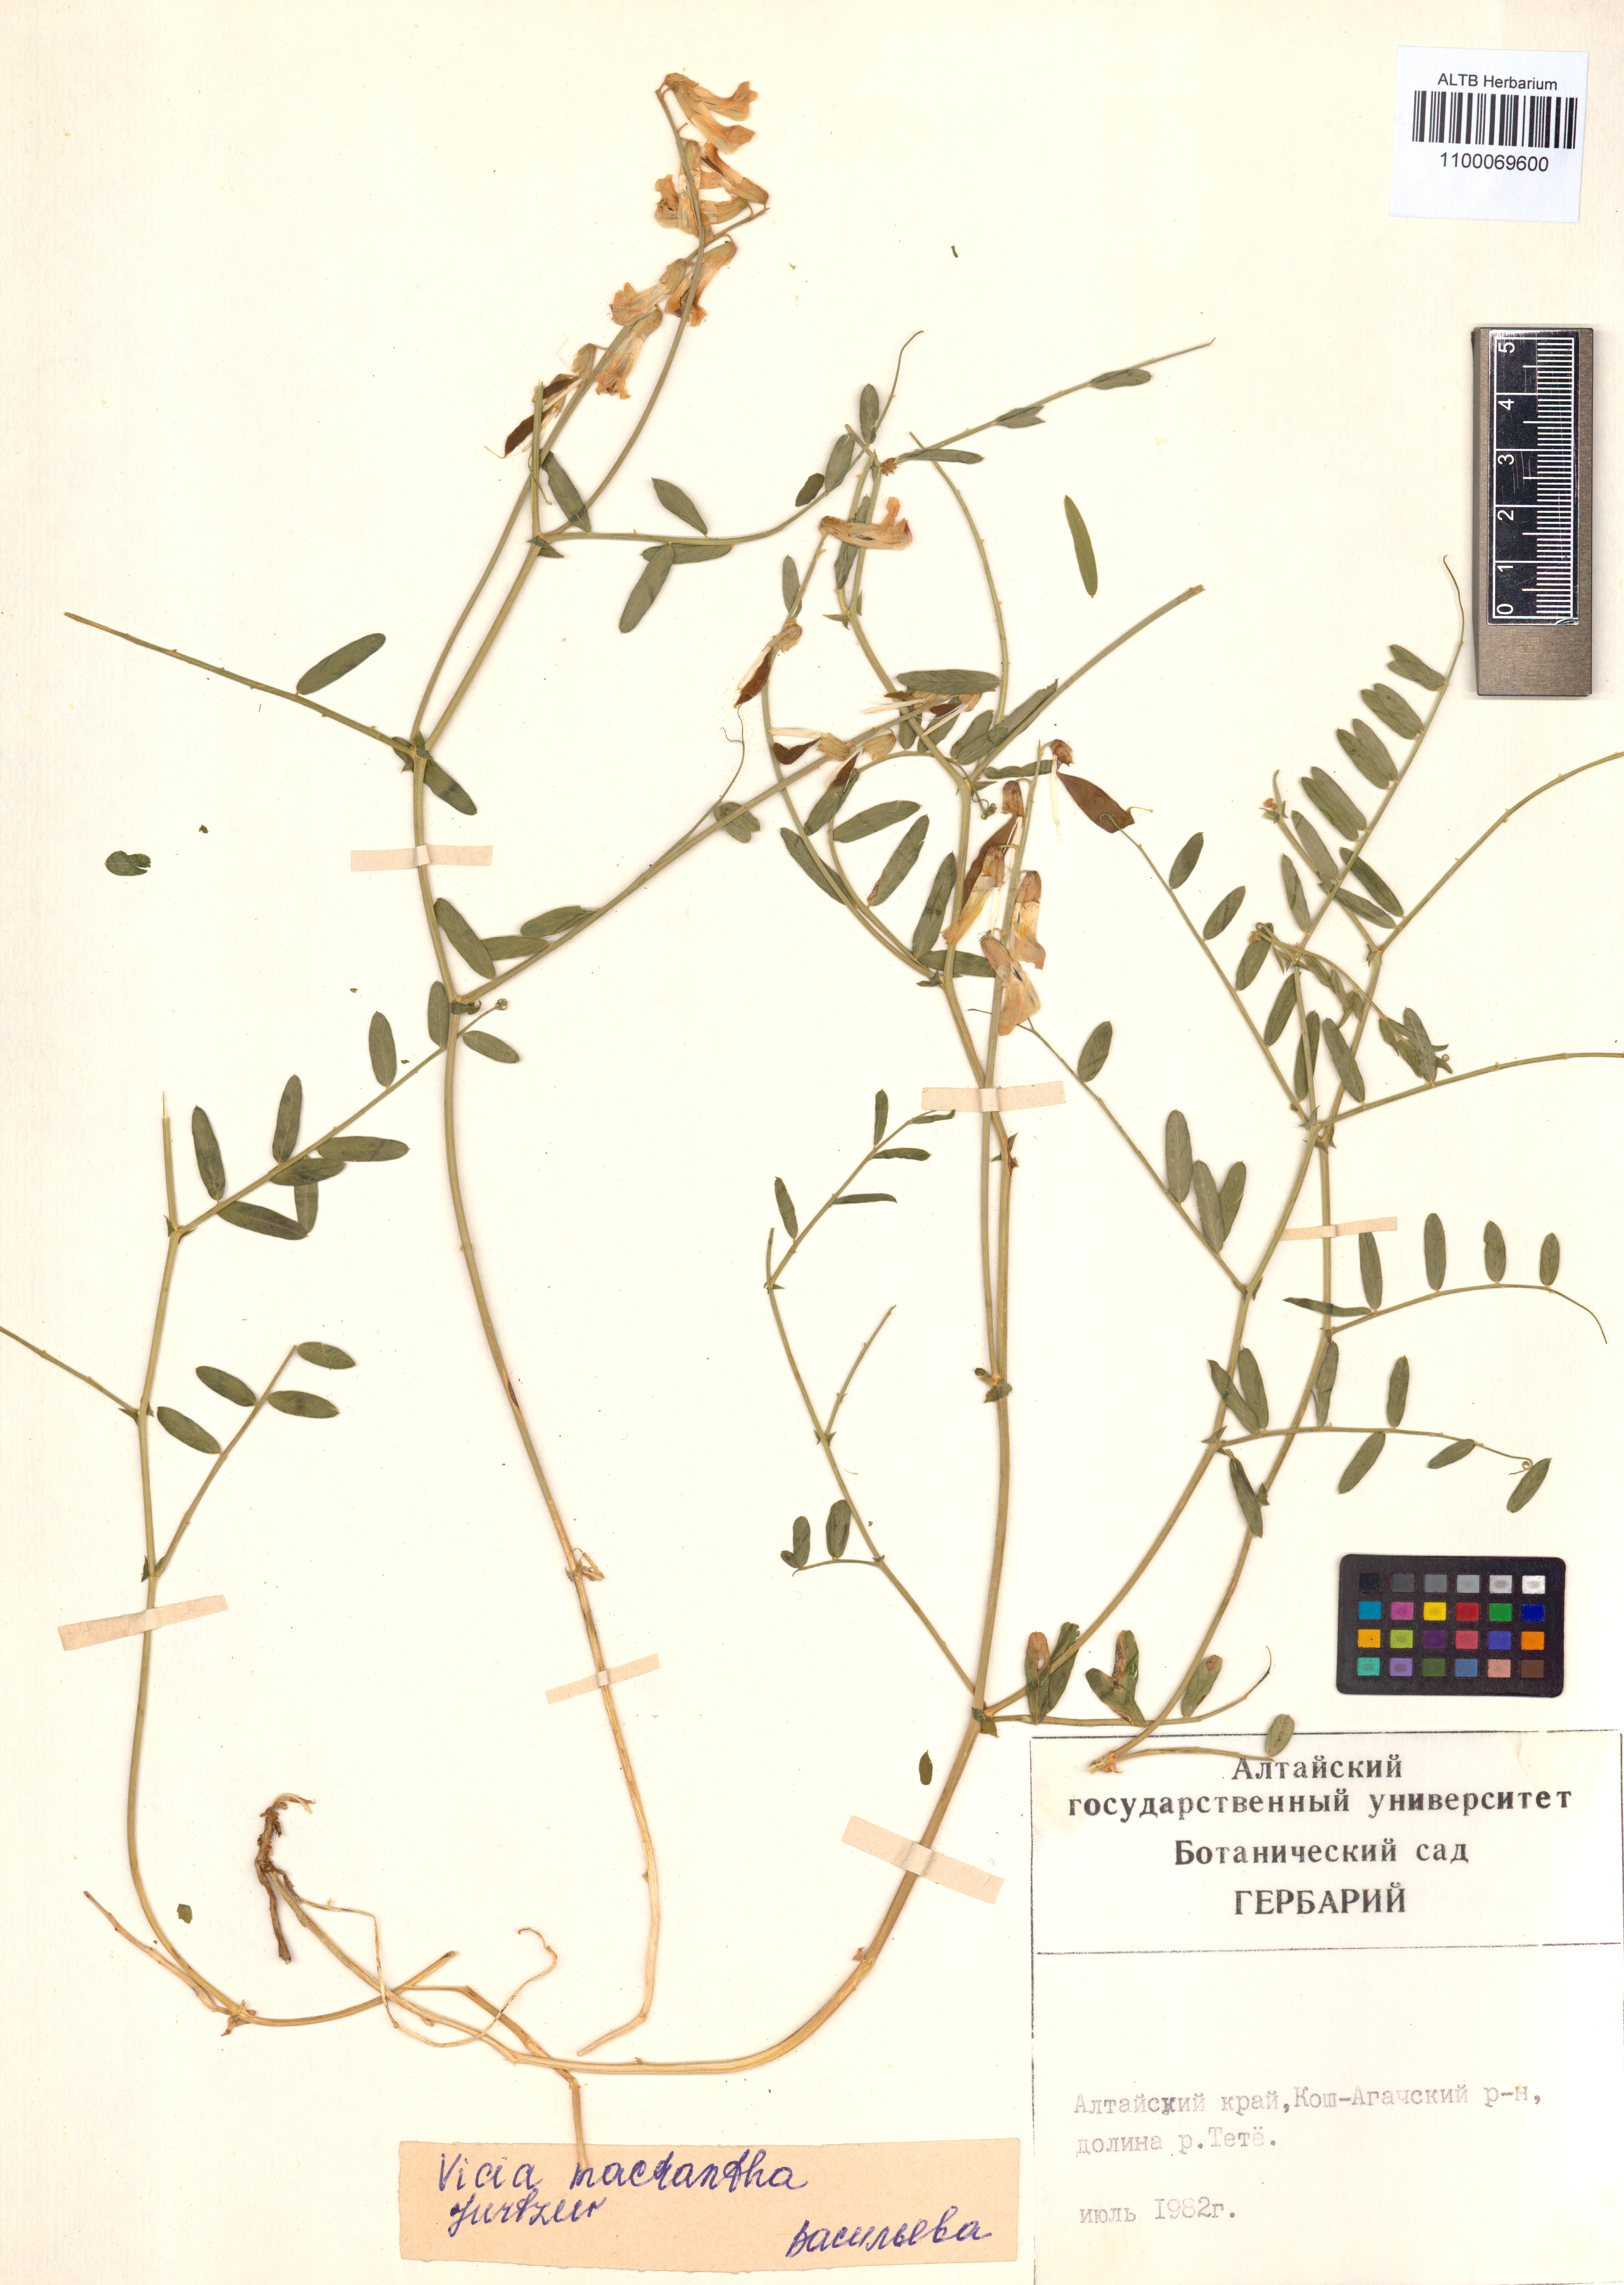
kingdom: Plantae
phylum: Tracheophyta
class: Magnoliopsida
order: Fabales
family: Fabaceae
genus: Vicia
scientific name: Vicia macrantha
